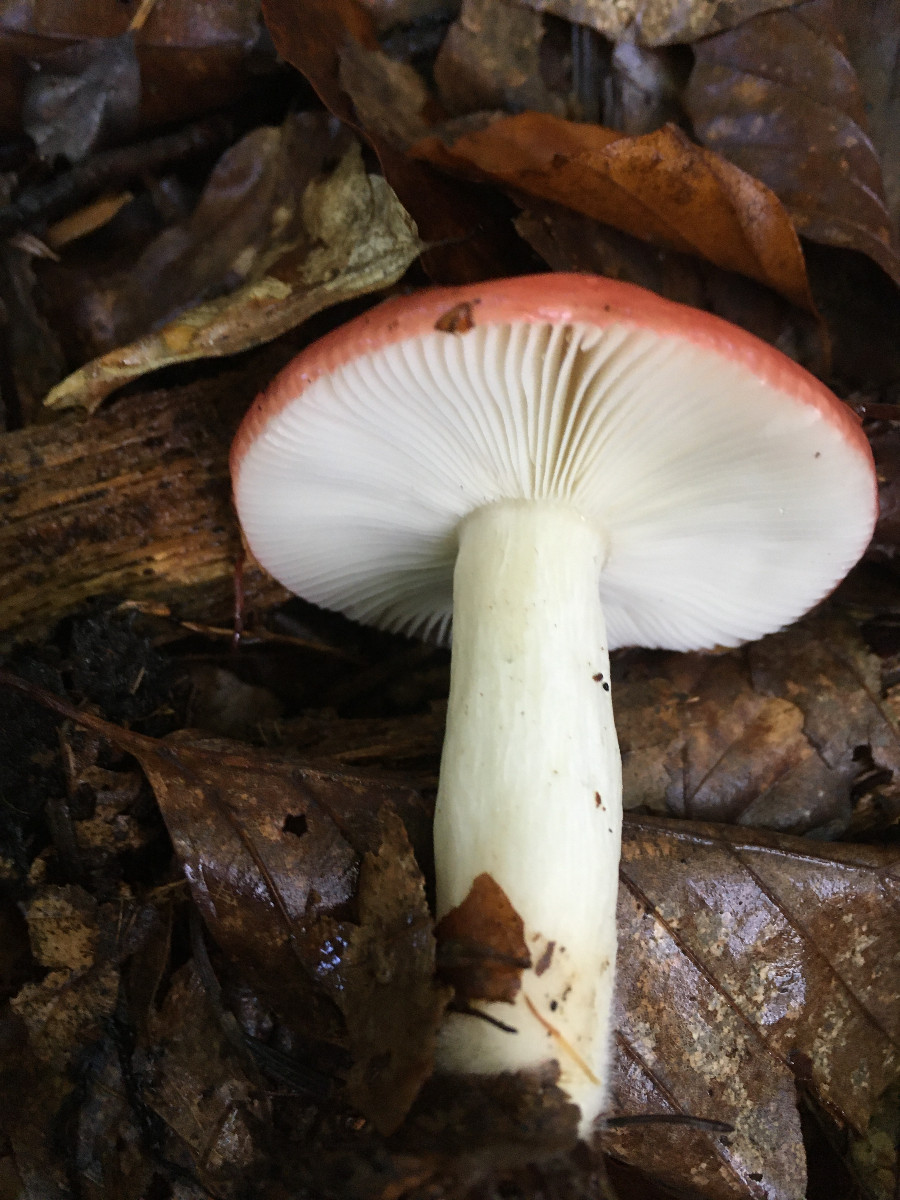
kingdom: Fungi
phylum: Basidiomycota
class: Agaricomycetes
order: Russulales
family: Russulaceae
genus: Russula
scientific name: Russula silvestris
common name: mellemstor gift-skørhat
